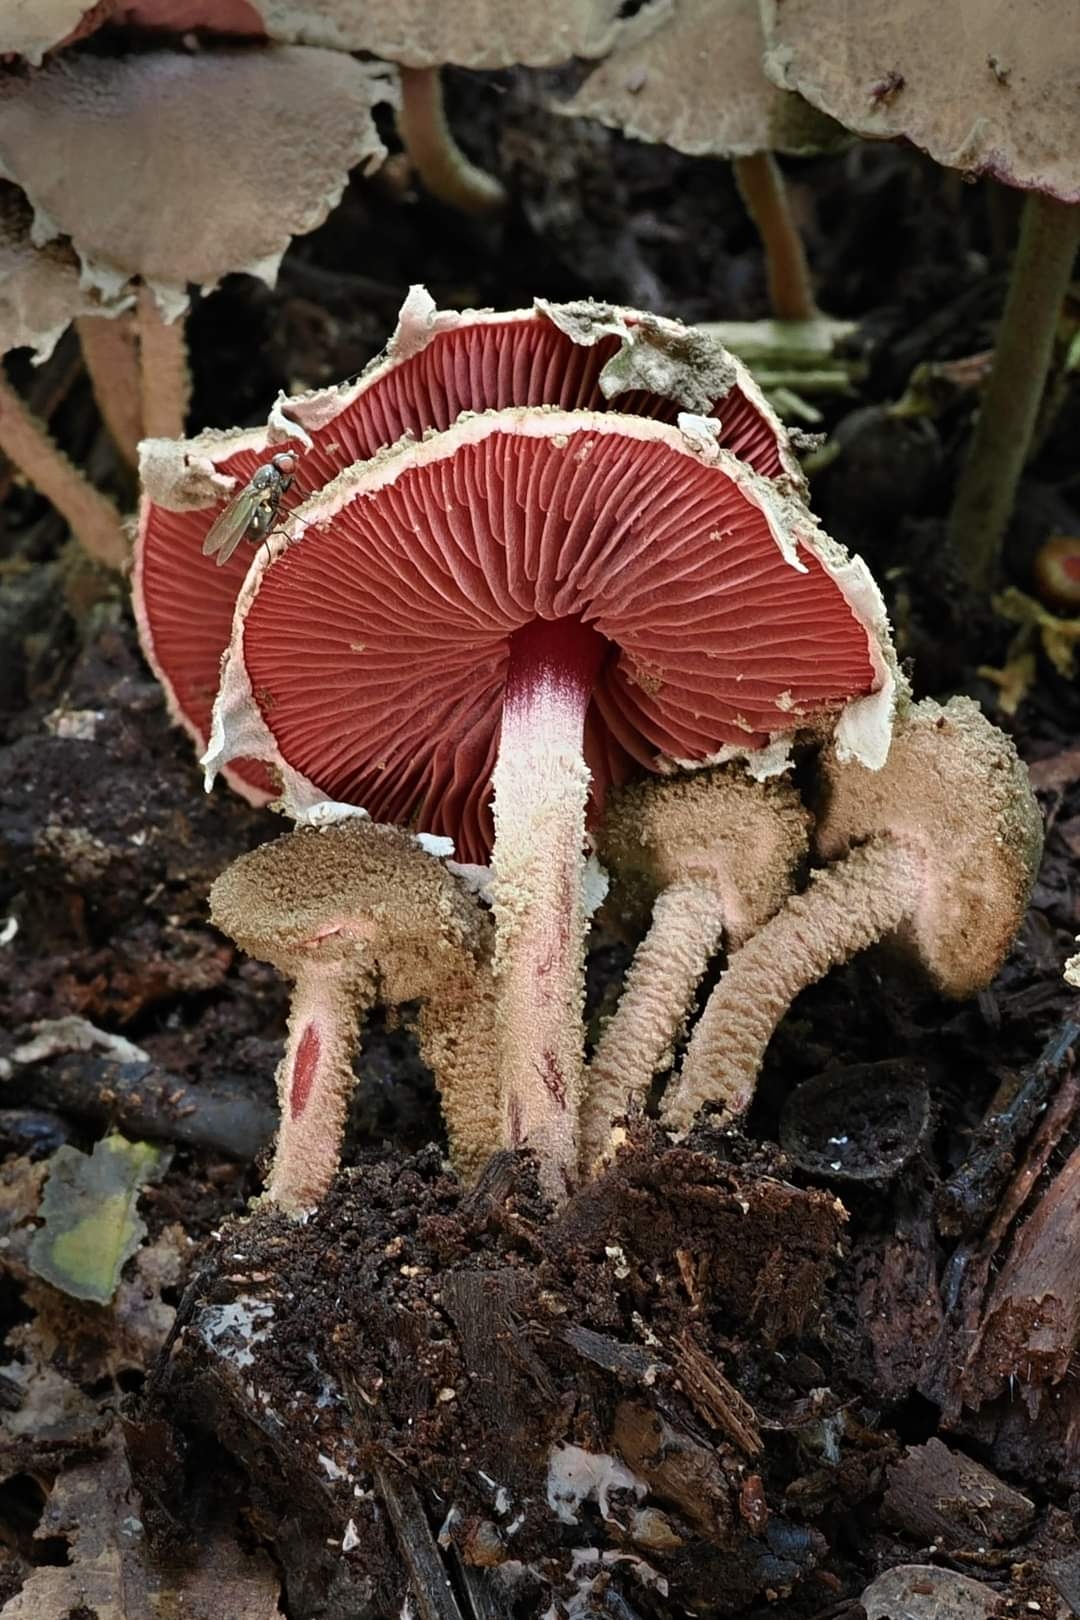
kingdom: Fungi
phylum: Basidiomycota
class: Agaricomycetes
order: Agaricales
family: Agaricaceae
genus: Melanophyllum
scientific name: Melanophyllum haematospermum
